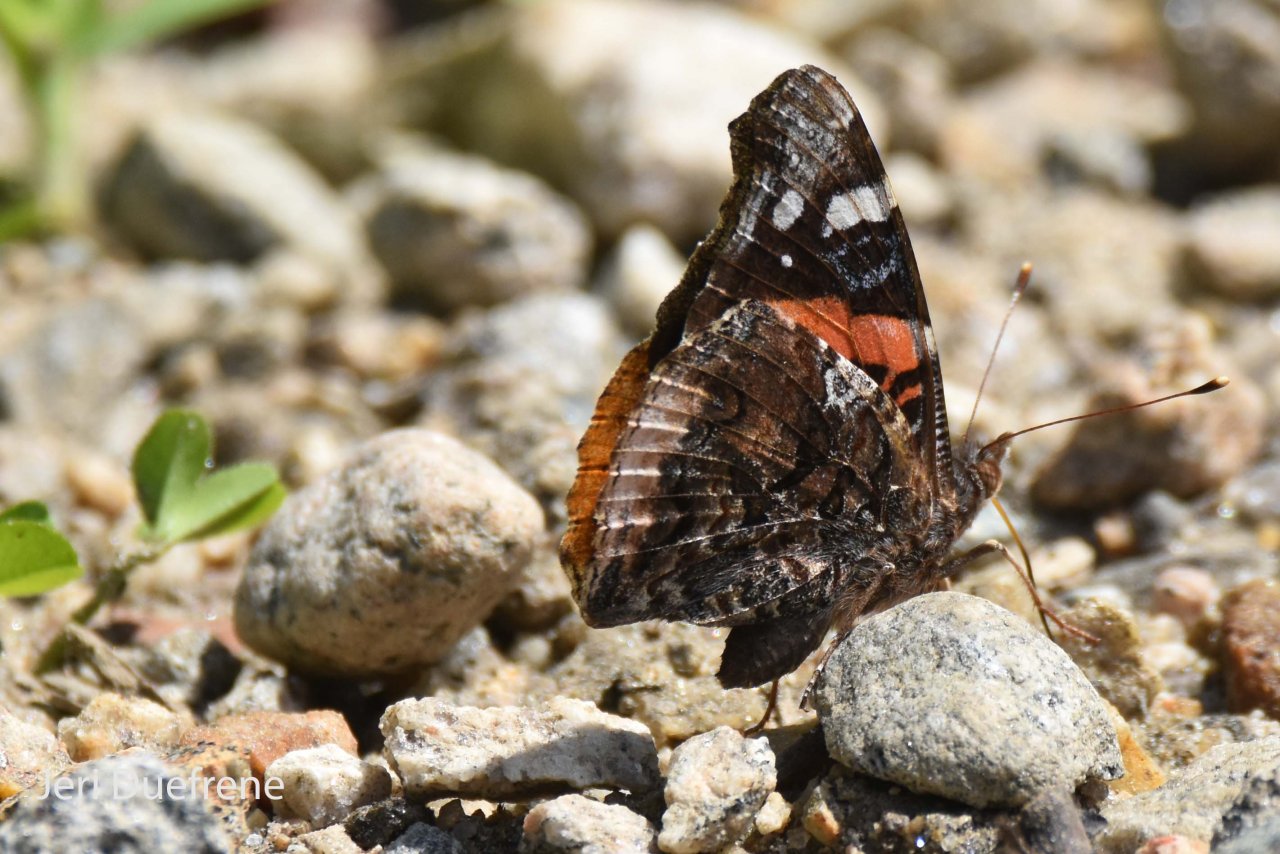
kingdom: Animalia
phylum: Arthropoda
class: Insecta
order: Lepidoptera
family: Nymphalidae
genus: Vanessa
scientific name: Vanessa atalanta
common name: Red Admiral
